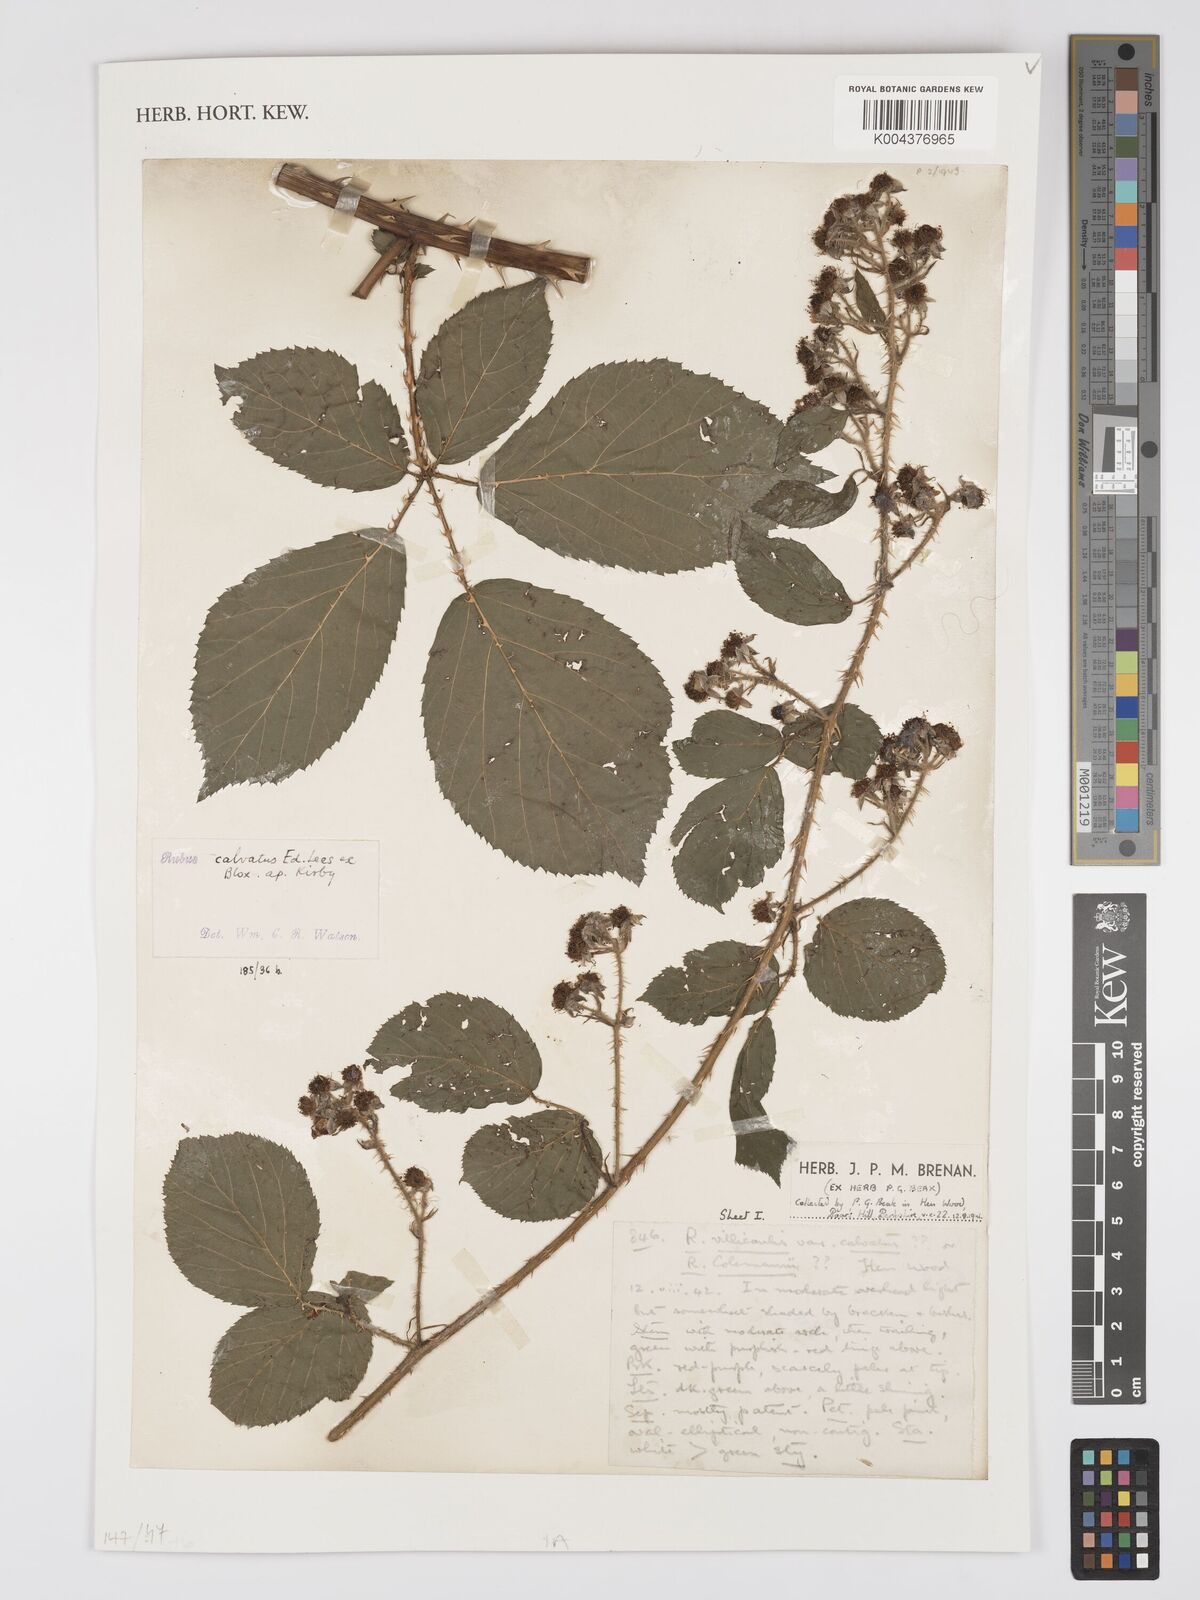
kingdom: Plantae
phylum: Tracheophyta
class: Magnoliopsida
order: Rosales
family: Rosaceae
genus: Rubus
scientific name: Rubus calvatus
